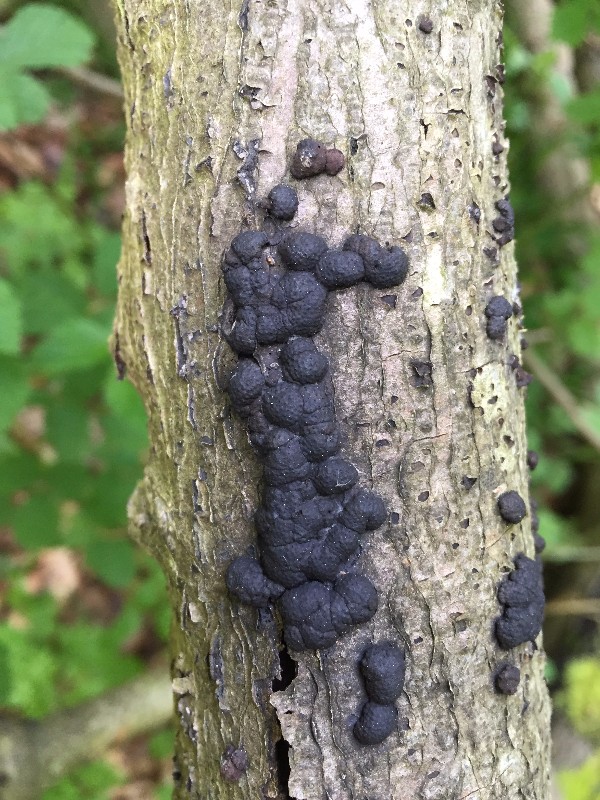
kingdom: Fungi
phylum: Ascomycota
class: Sordariomycetes
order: Xylariales
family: Hypoxylaceae
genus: Jackrogersella
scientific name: Jackrogersella cohaerens
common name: sammenflydende kulbær
